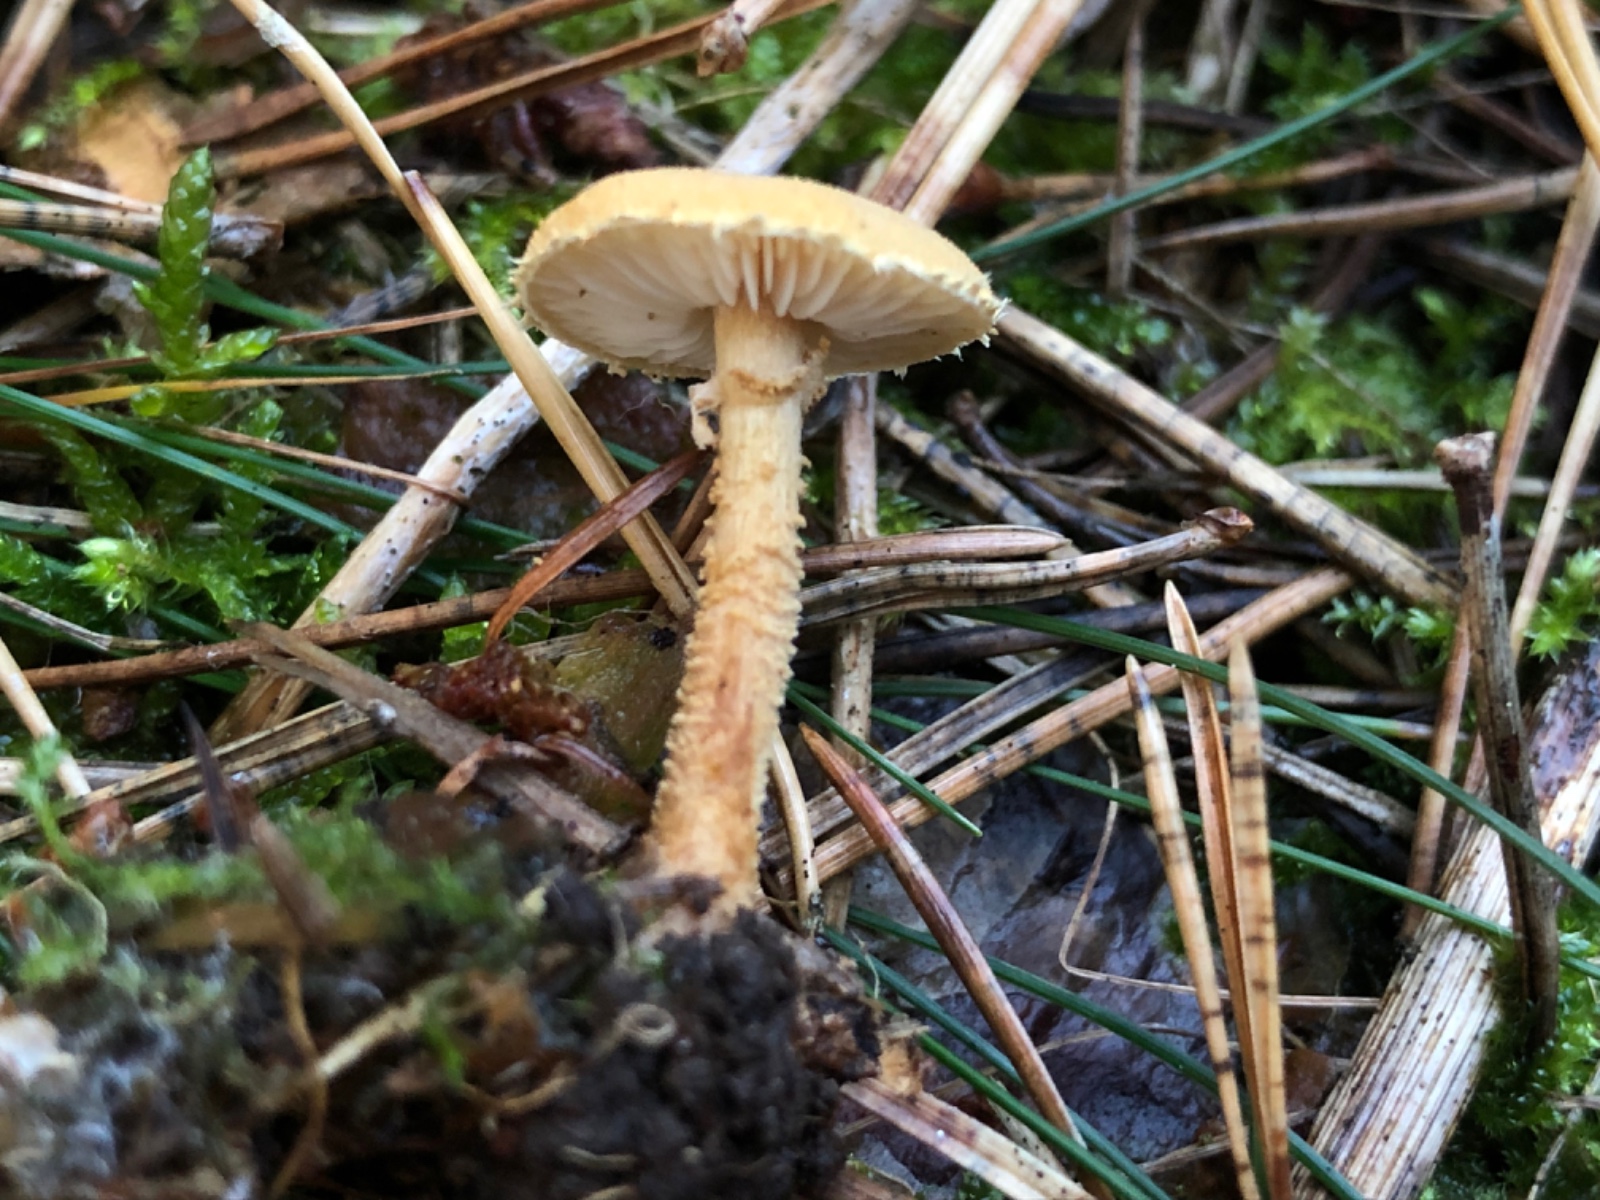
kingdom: Fungi
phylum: Basidiomycota
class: Agaricomycetes
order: Agaricales
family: Tricholomataceae
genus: Cystoderma
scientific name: Cystoderma amianthinum
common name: okkergul grynhat
